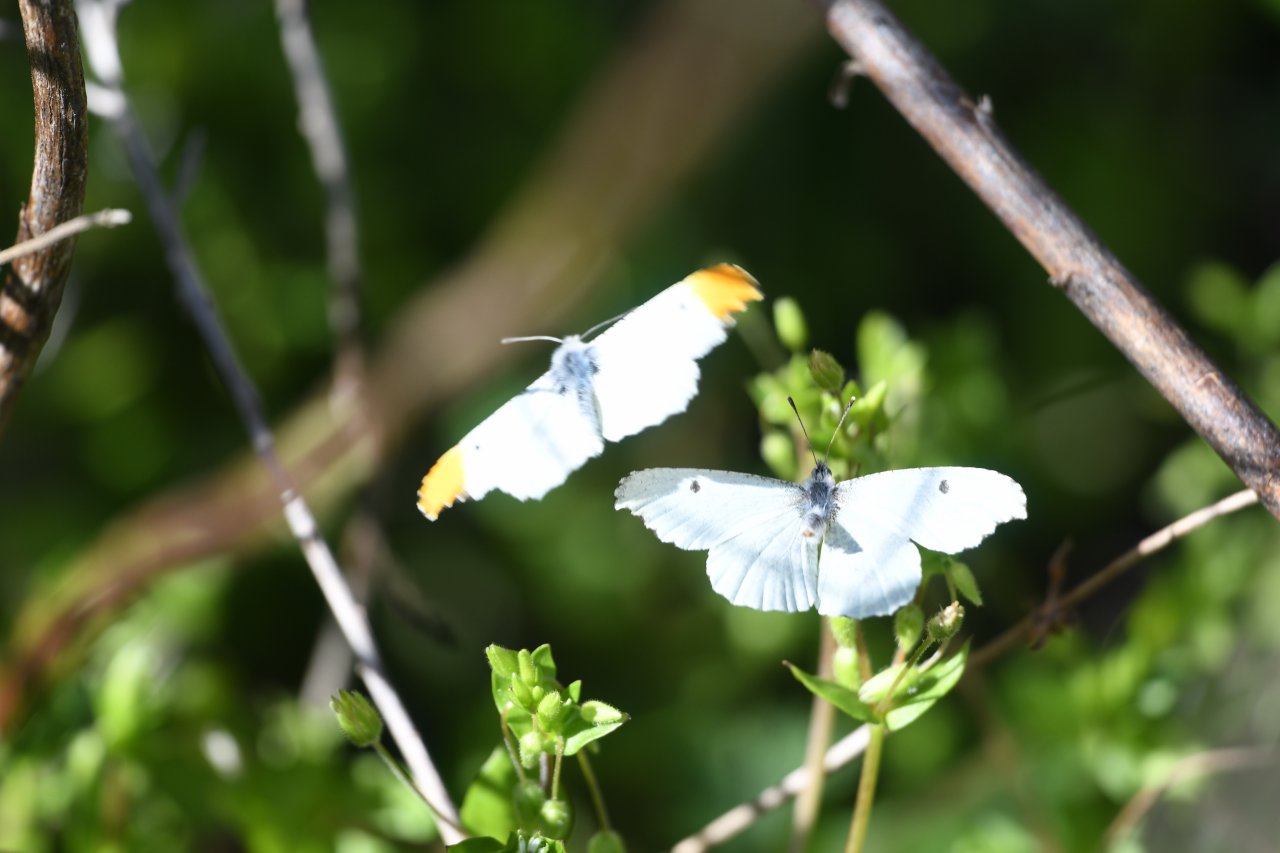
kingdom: Animalia
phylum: Arthropoda
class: Insecta
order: Lepidoptera
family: Pieridae
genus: Anthocharis
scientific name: Anthocharis midea
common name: Falcate Orangetip
